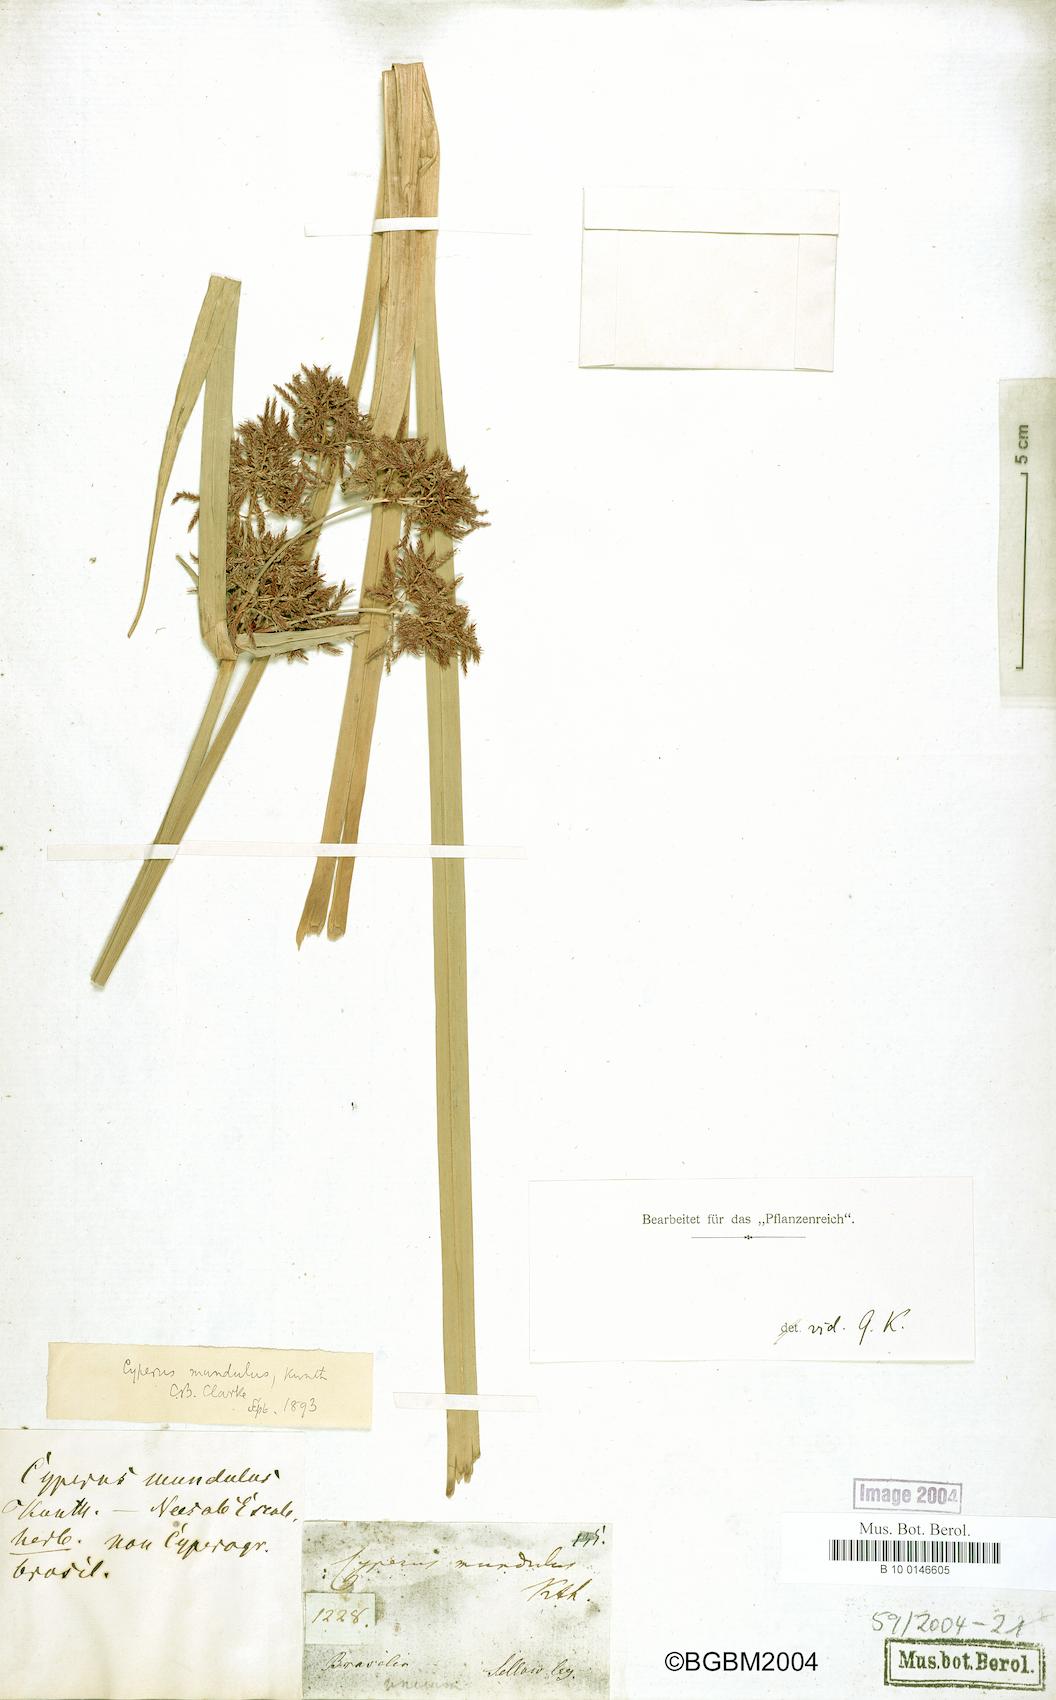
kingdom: Plantae
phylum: Tracheophyta
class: Liliopsida
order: Poales
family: Cyperaceae
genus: Cyperus
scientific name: Cyperus mundulus
